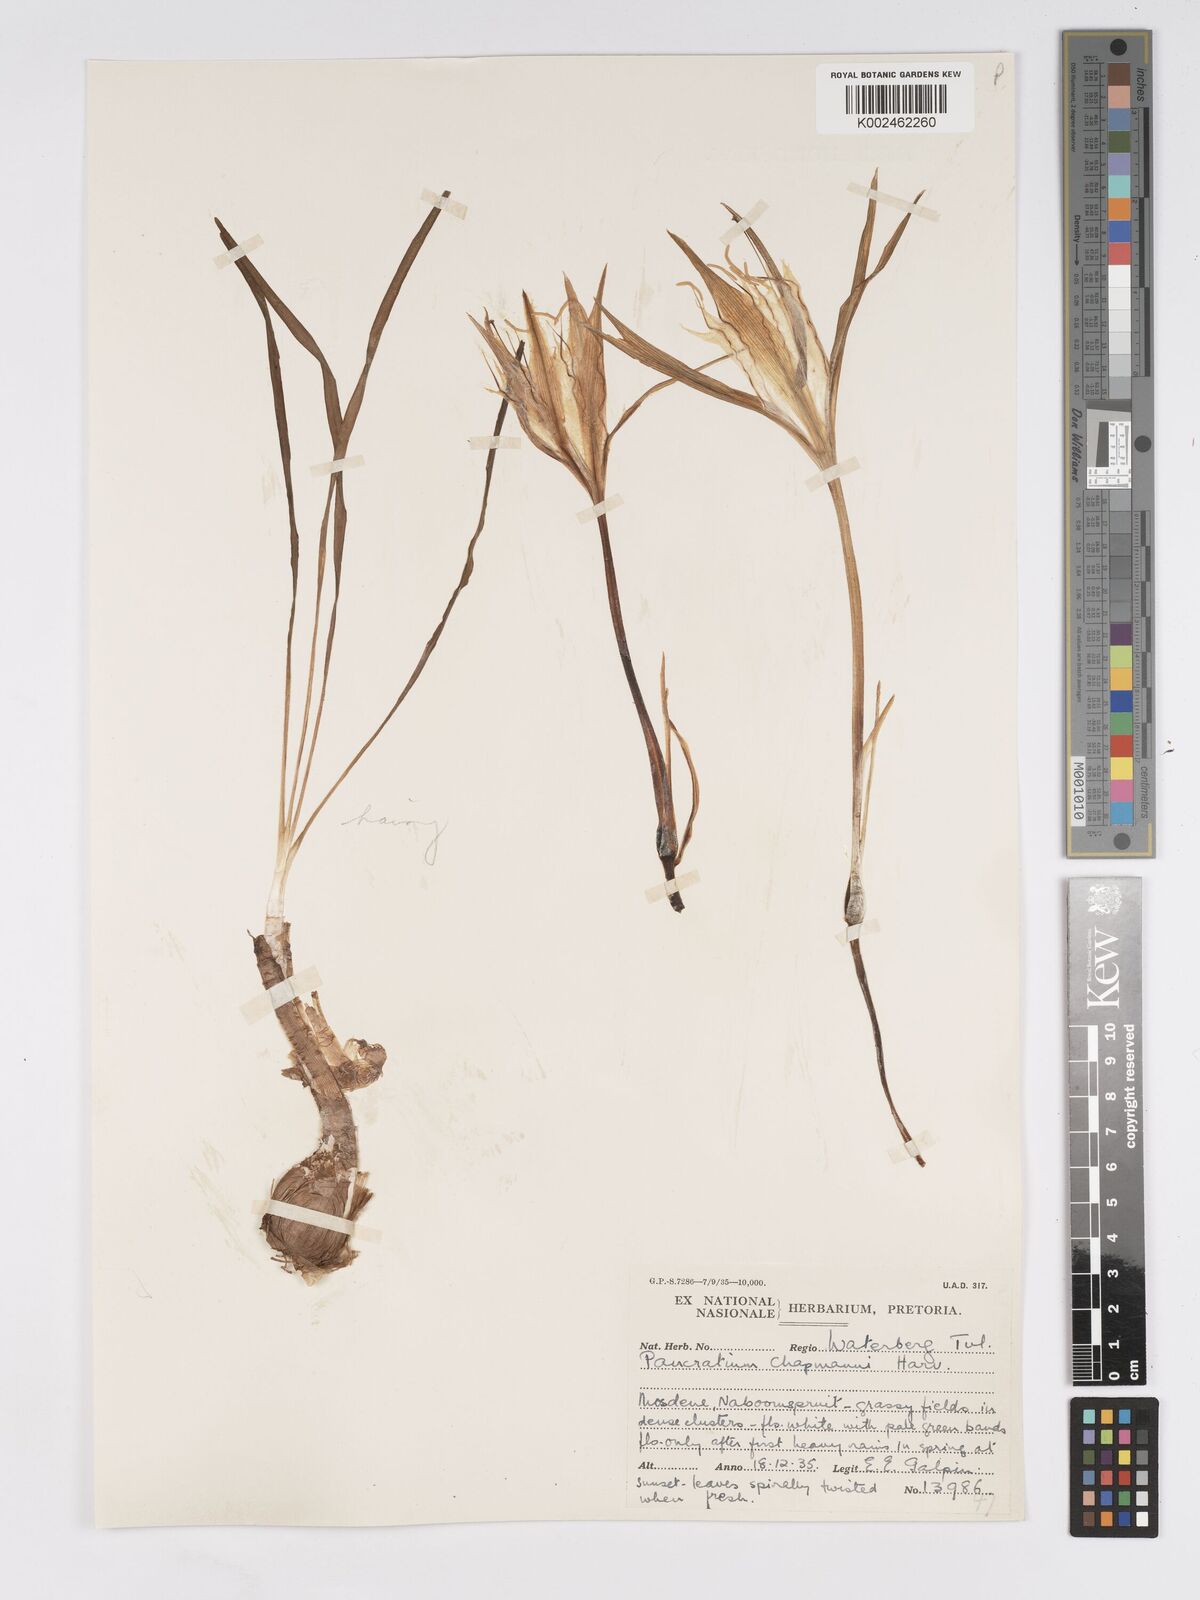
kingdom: Plantae
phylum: Tracheophyta
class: Liliopsida
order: Asparagales
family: Amaryllidaceae
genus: Pancratium
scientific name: Pancratium tenuifolium
